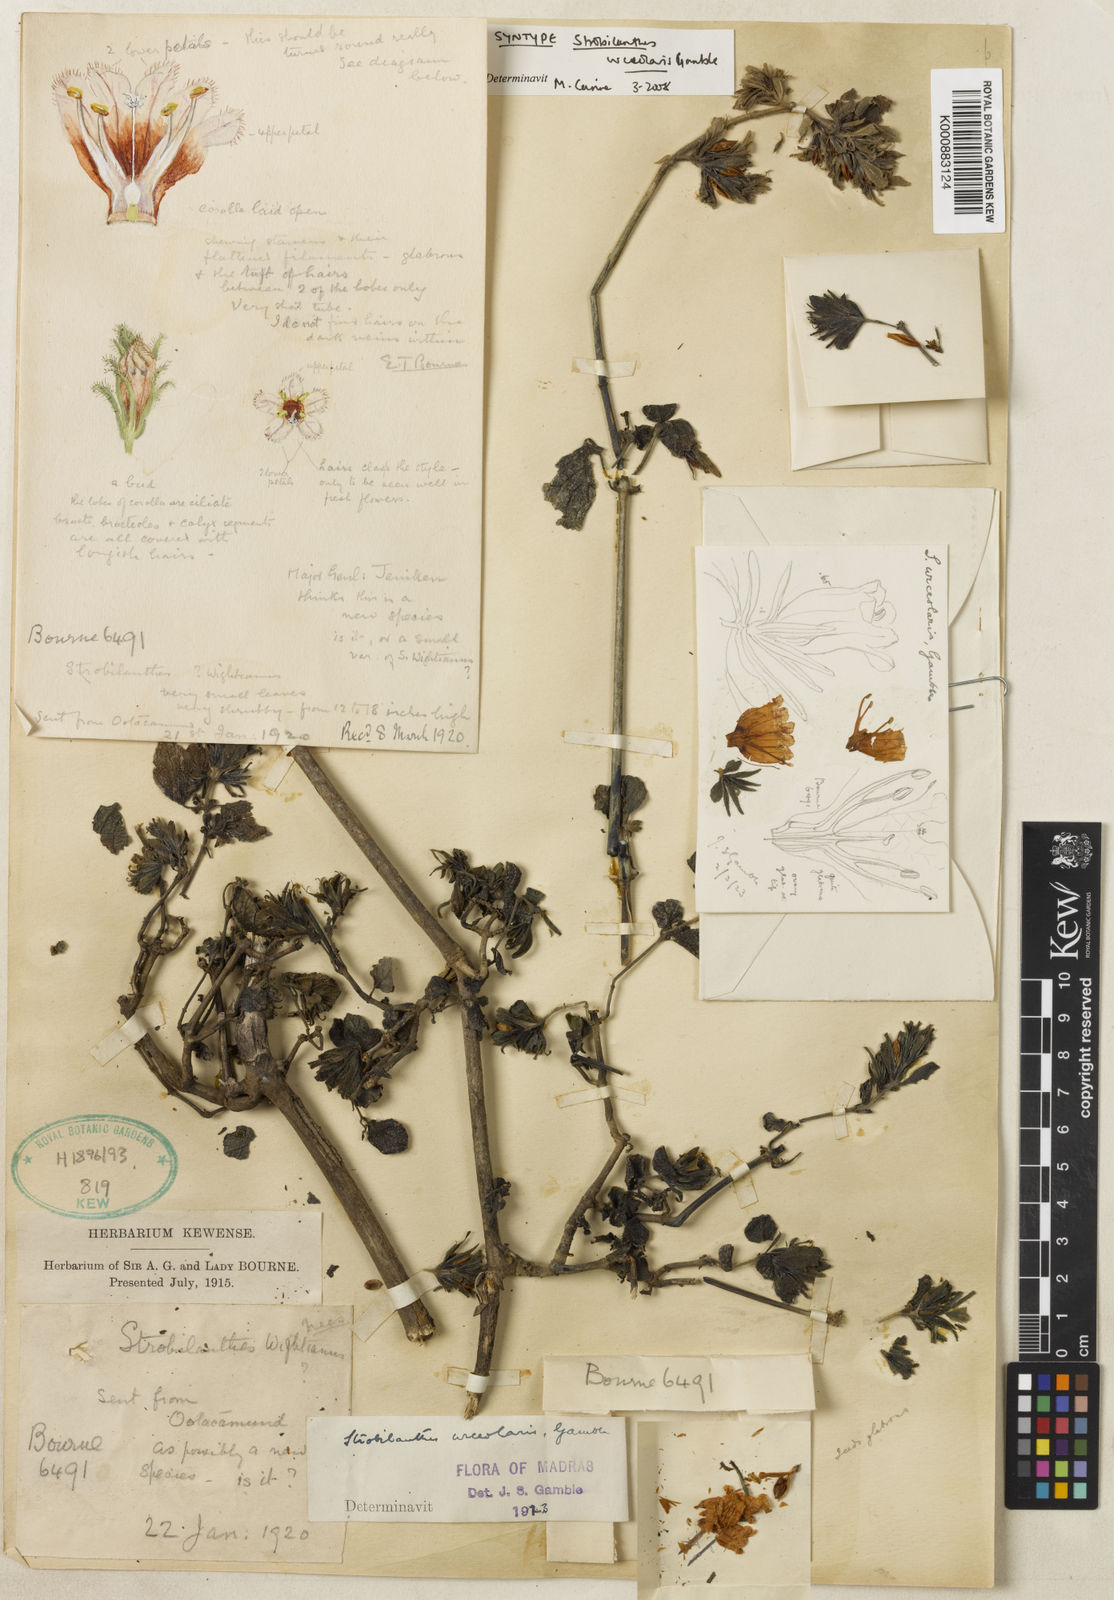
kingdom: Plantae
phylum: Tracheophyta
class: Magnoliopsida
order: Lamiales
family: Acanthaceae
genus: Strobilanthes
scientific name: Strobilanthes urceolaris
